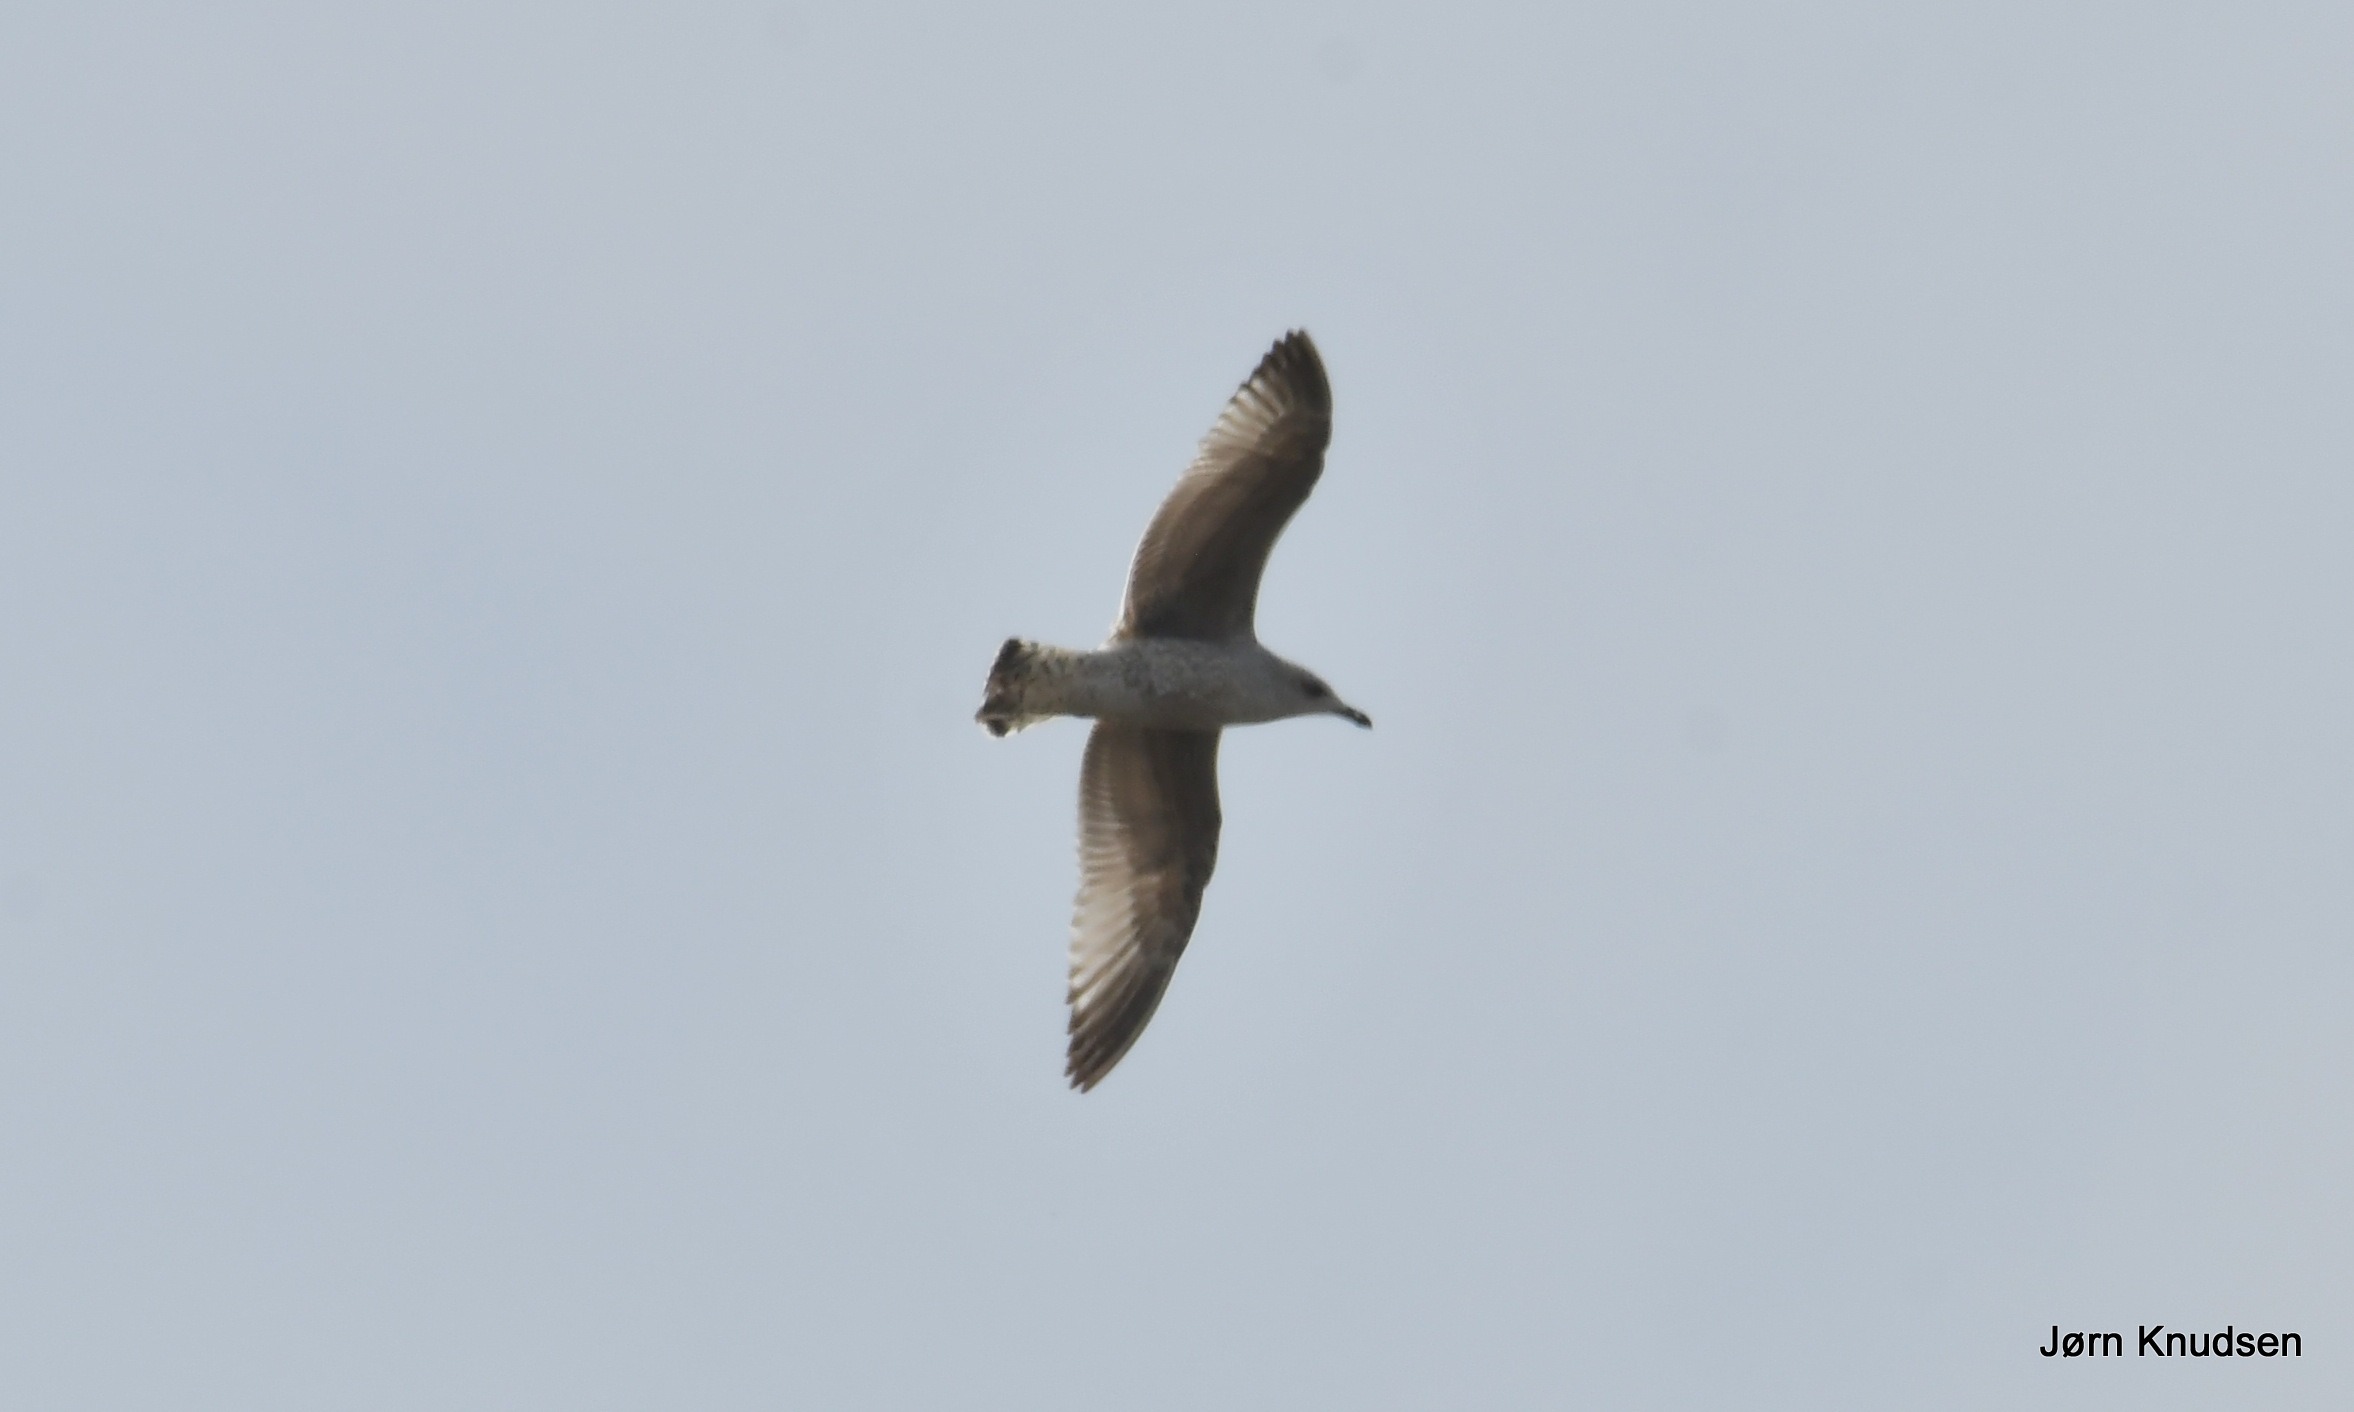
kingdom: Animalia
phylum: Chordata
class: Aves
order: Charadriiformes
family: Laridae
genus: Larus
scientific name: Larus argentatus
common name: Sølvmåge
